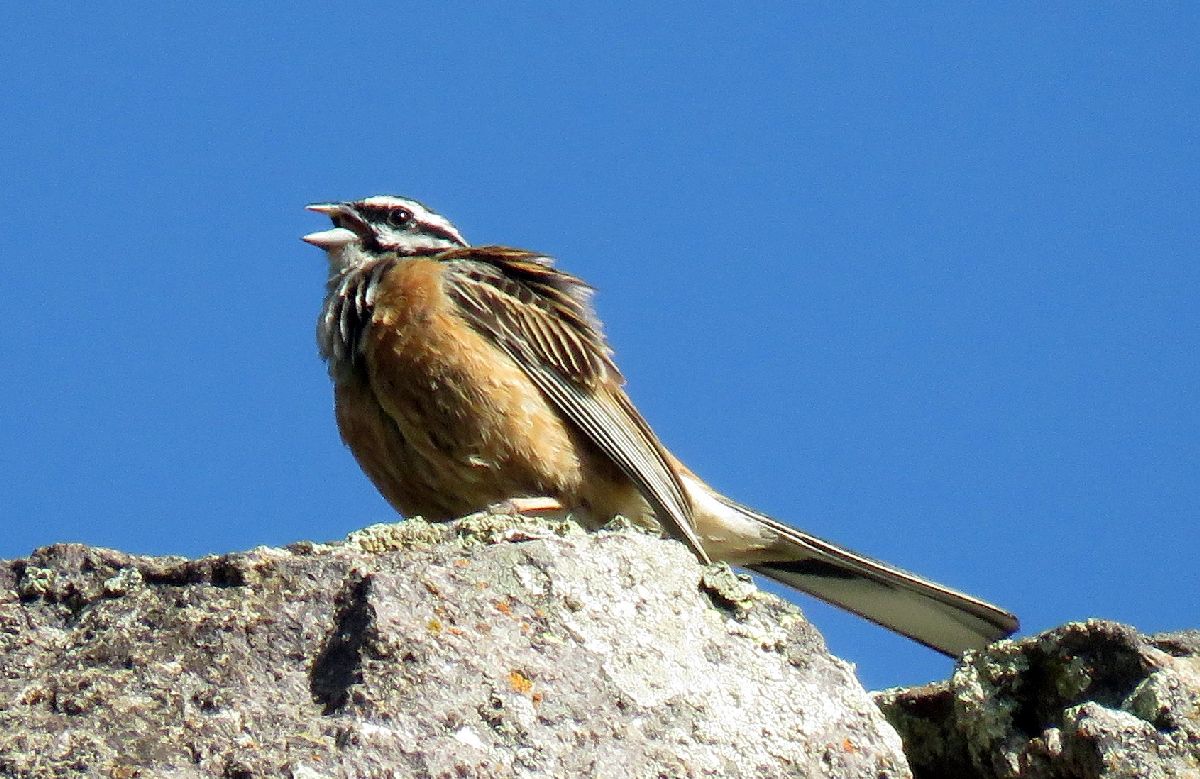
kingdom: Animalia
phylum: Chordata
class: Aves
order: Passeriformes
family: Emberizidae
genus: Emberiza
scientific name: Emberiza cia
